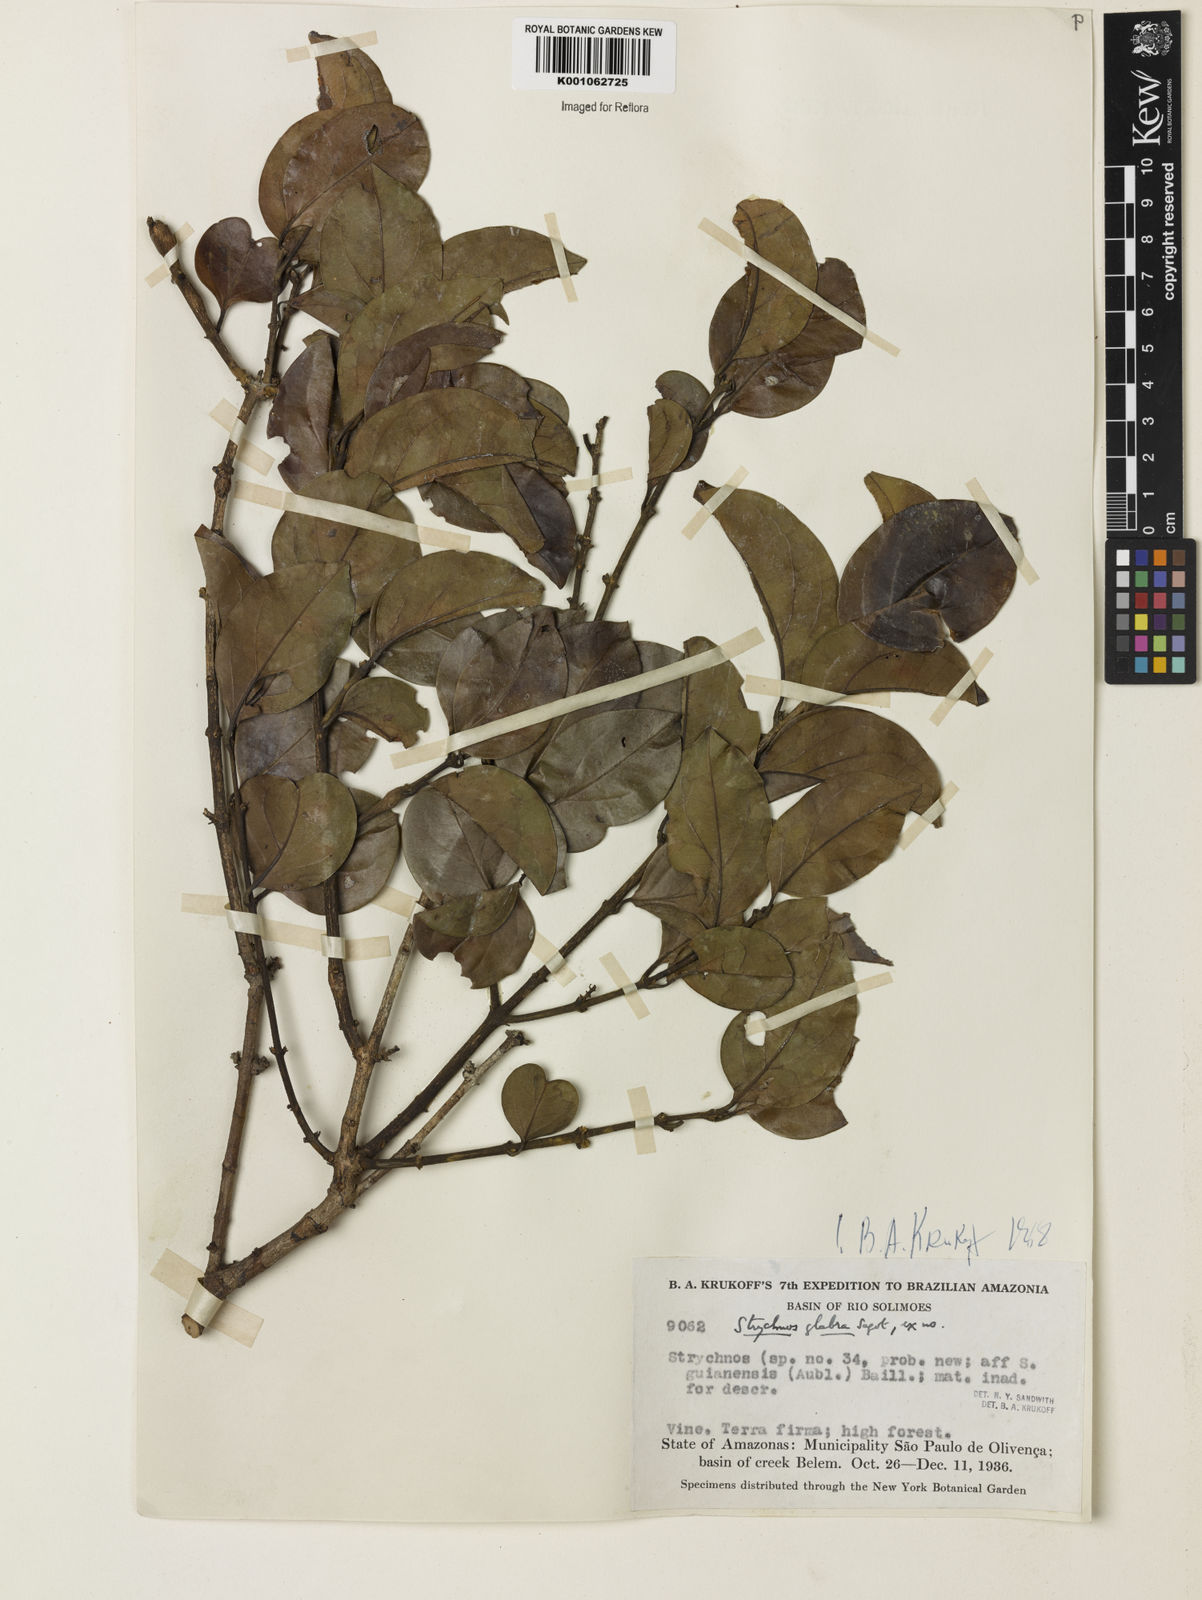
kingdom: Plantae
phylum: Tracheophyta
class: Magnoliopsida
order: Gentianales
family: Loganiaceae
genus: Strychnos
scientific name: Strychnos glabra
